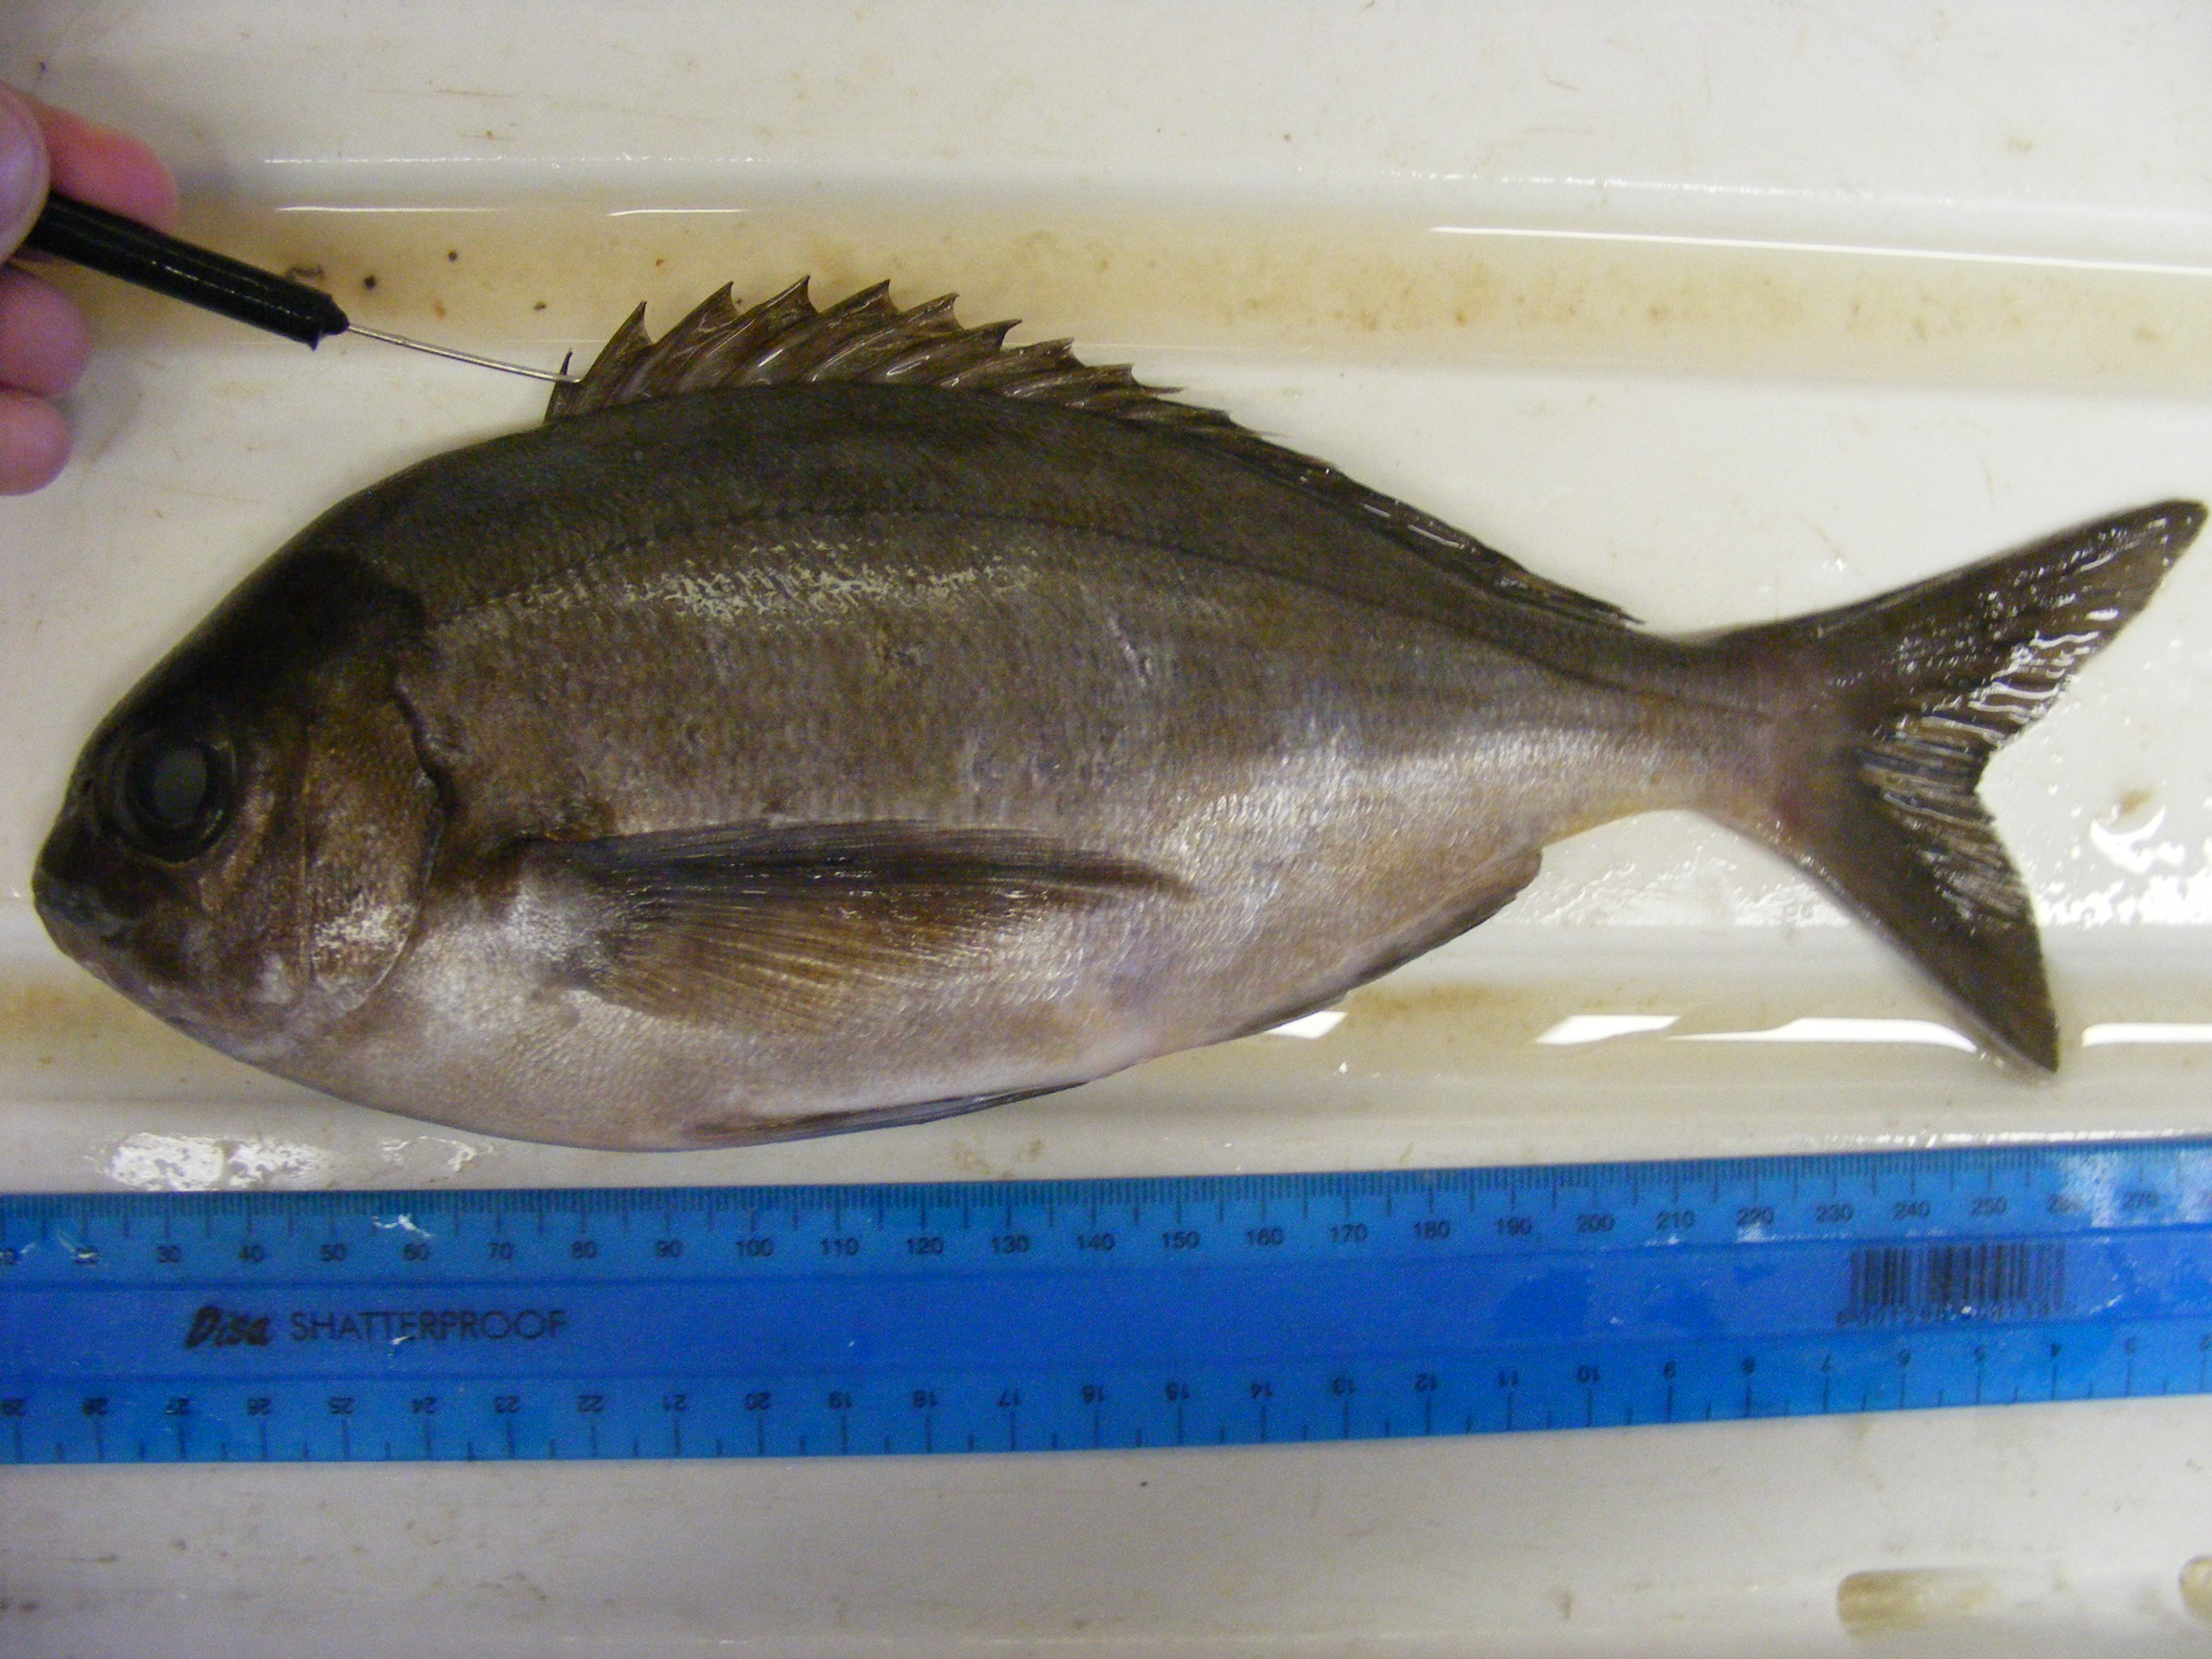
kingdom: Animalia
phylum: Chordata
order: Perciformes
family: Sparidae
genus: Pterogymnus
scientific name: Pterogymnus laniarius
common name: Panga
